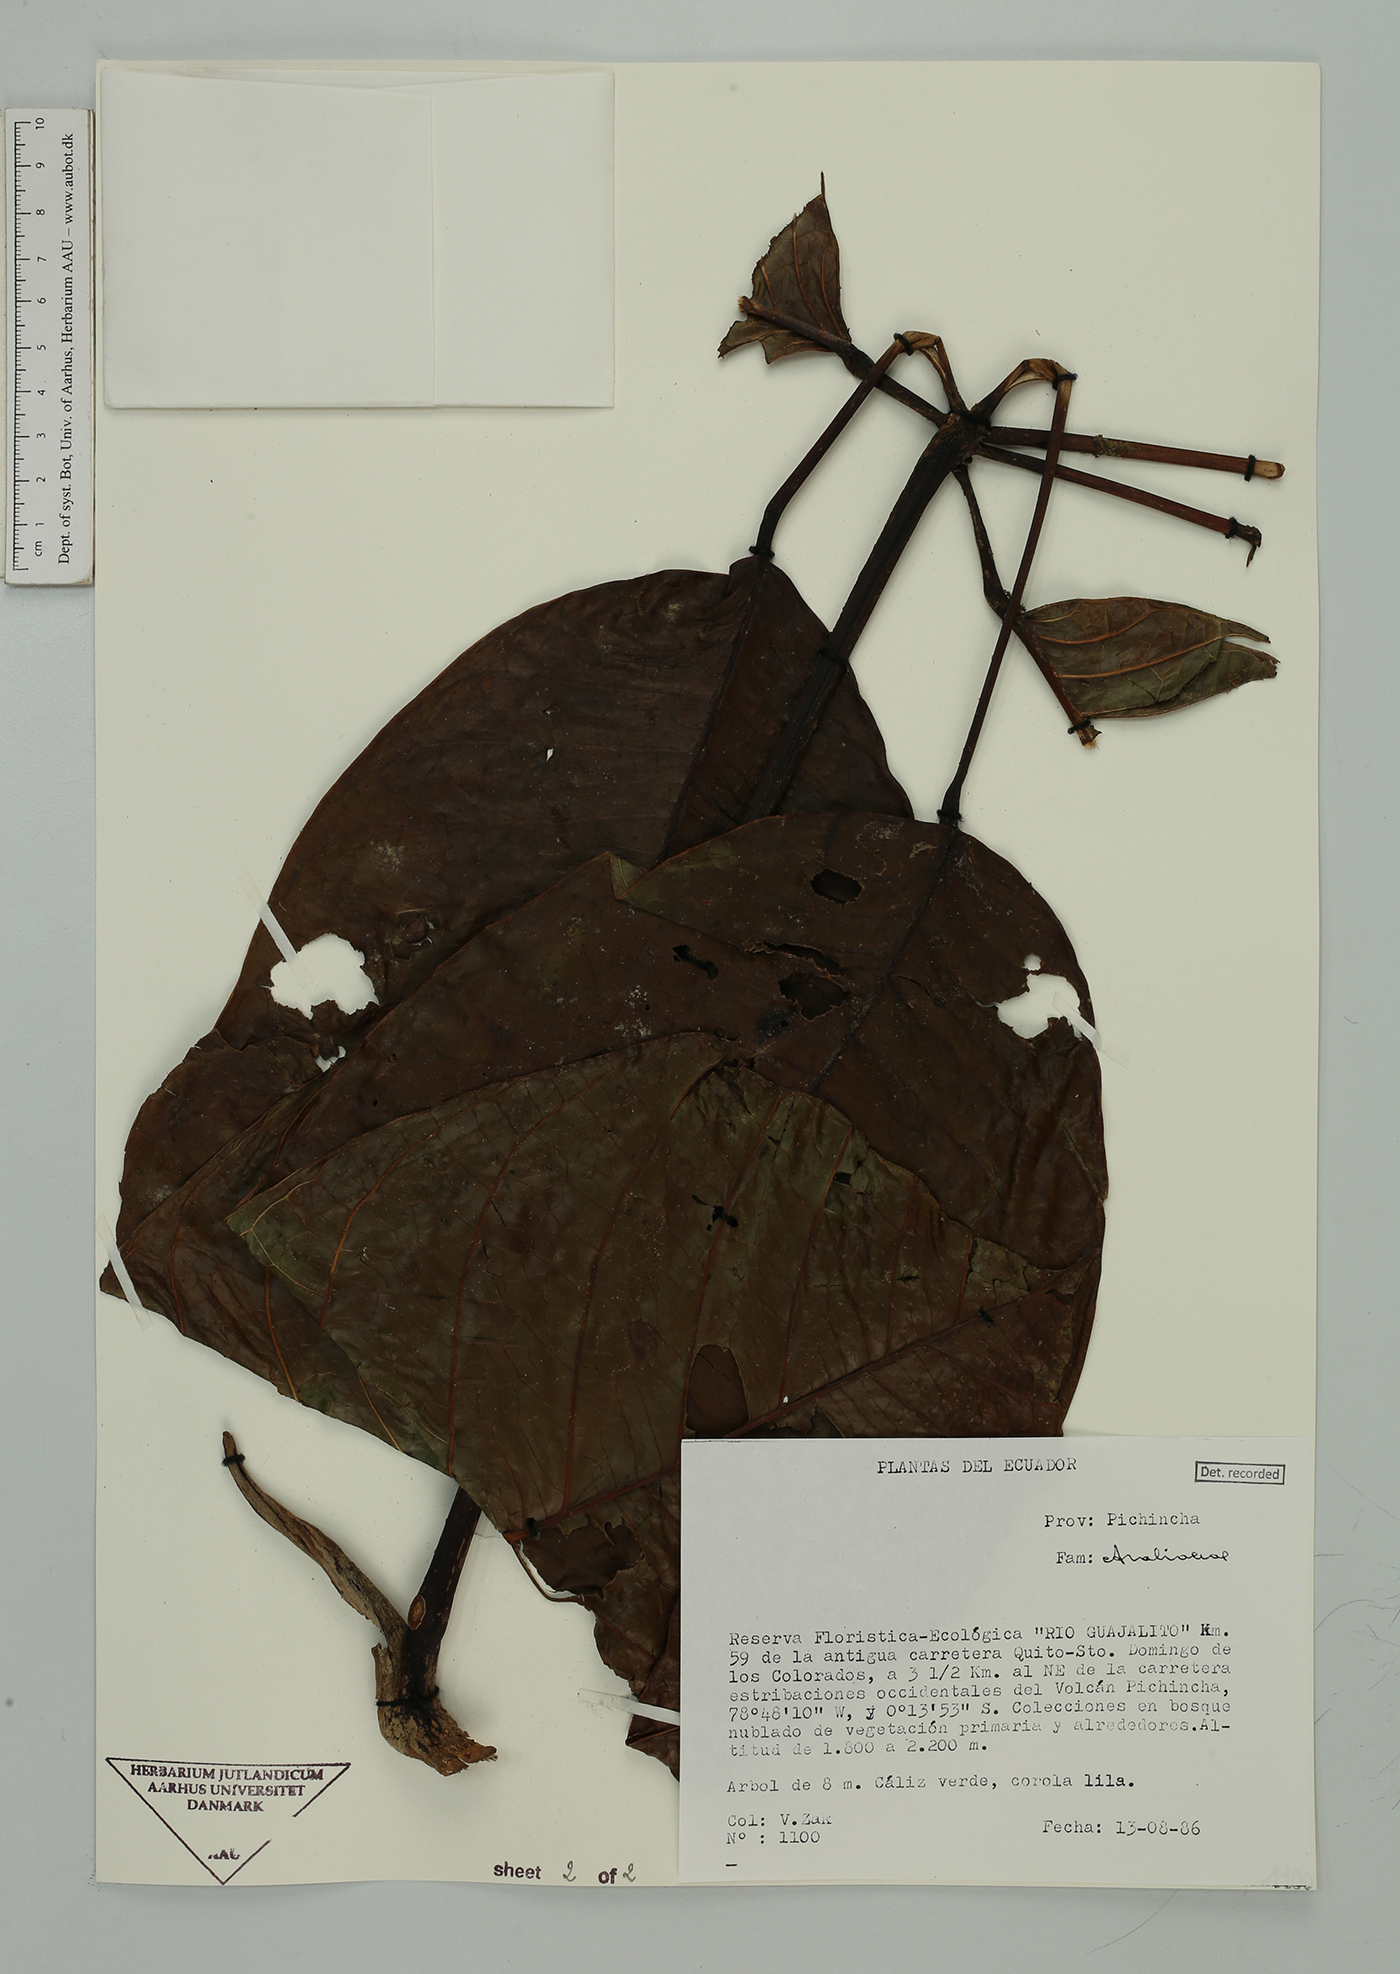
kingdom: Plantae
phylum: Tracheophyta
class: Magnoliopsida
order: Apiales
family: Araliaceae
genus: Sciodaphyllum
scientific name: Sciodaphyllum
